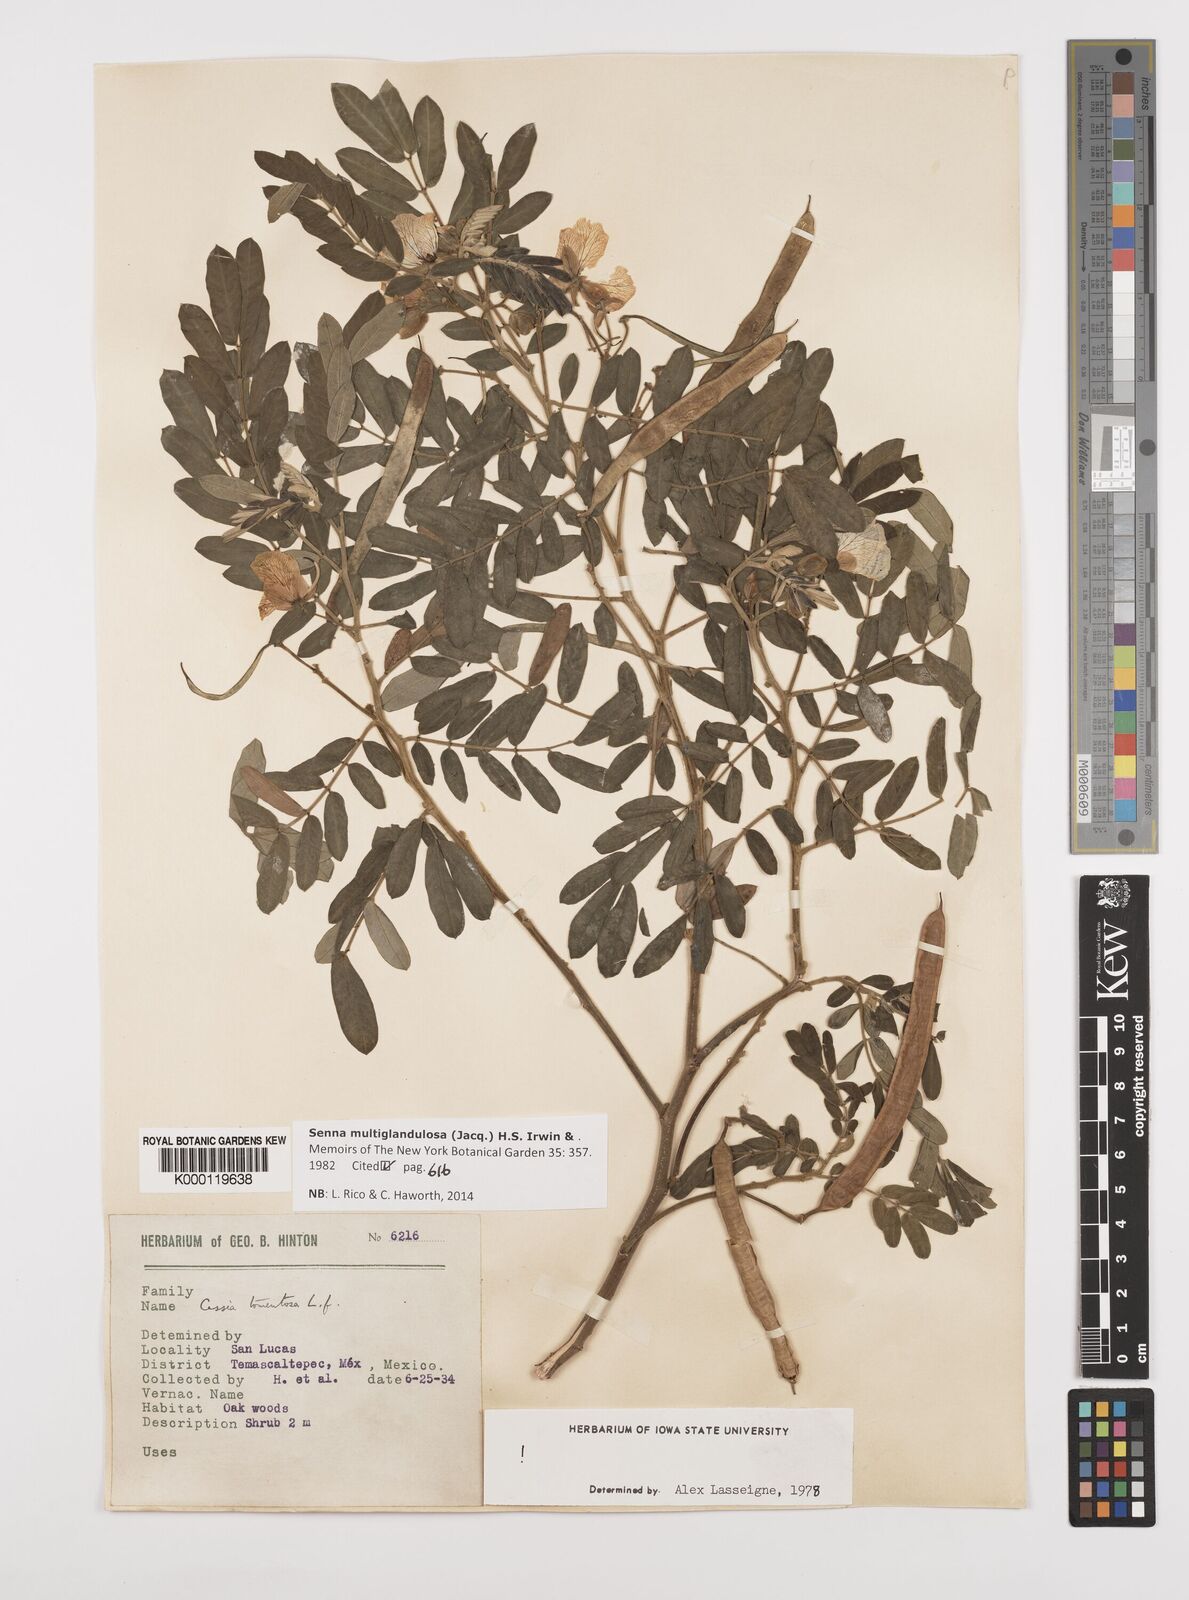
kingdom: Plantae
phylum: Tracheophyta
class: Magnoliopsida
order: Fabales
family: Fabaceae
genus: Senna
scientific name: Senna multiglandulosa
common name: Glandular senna
